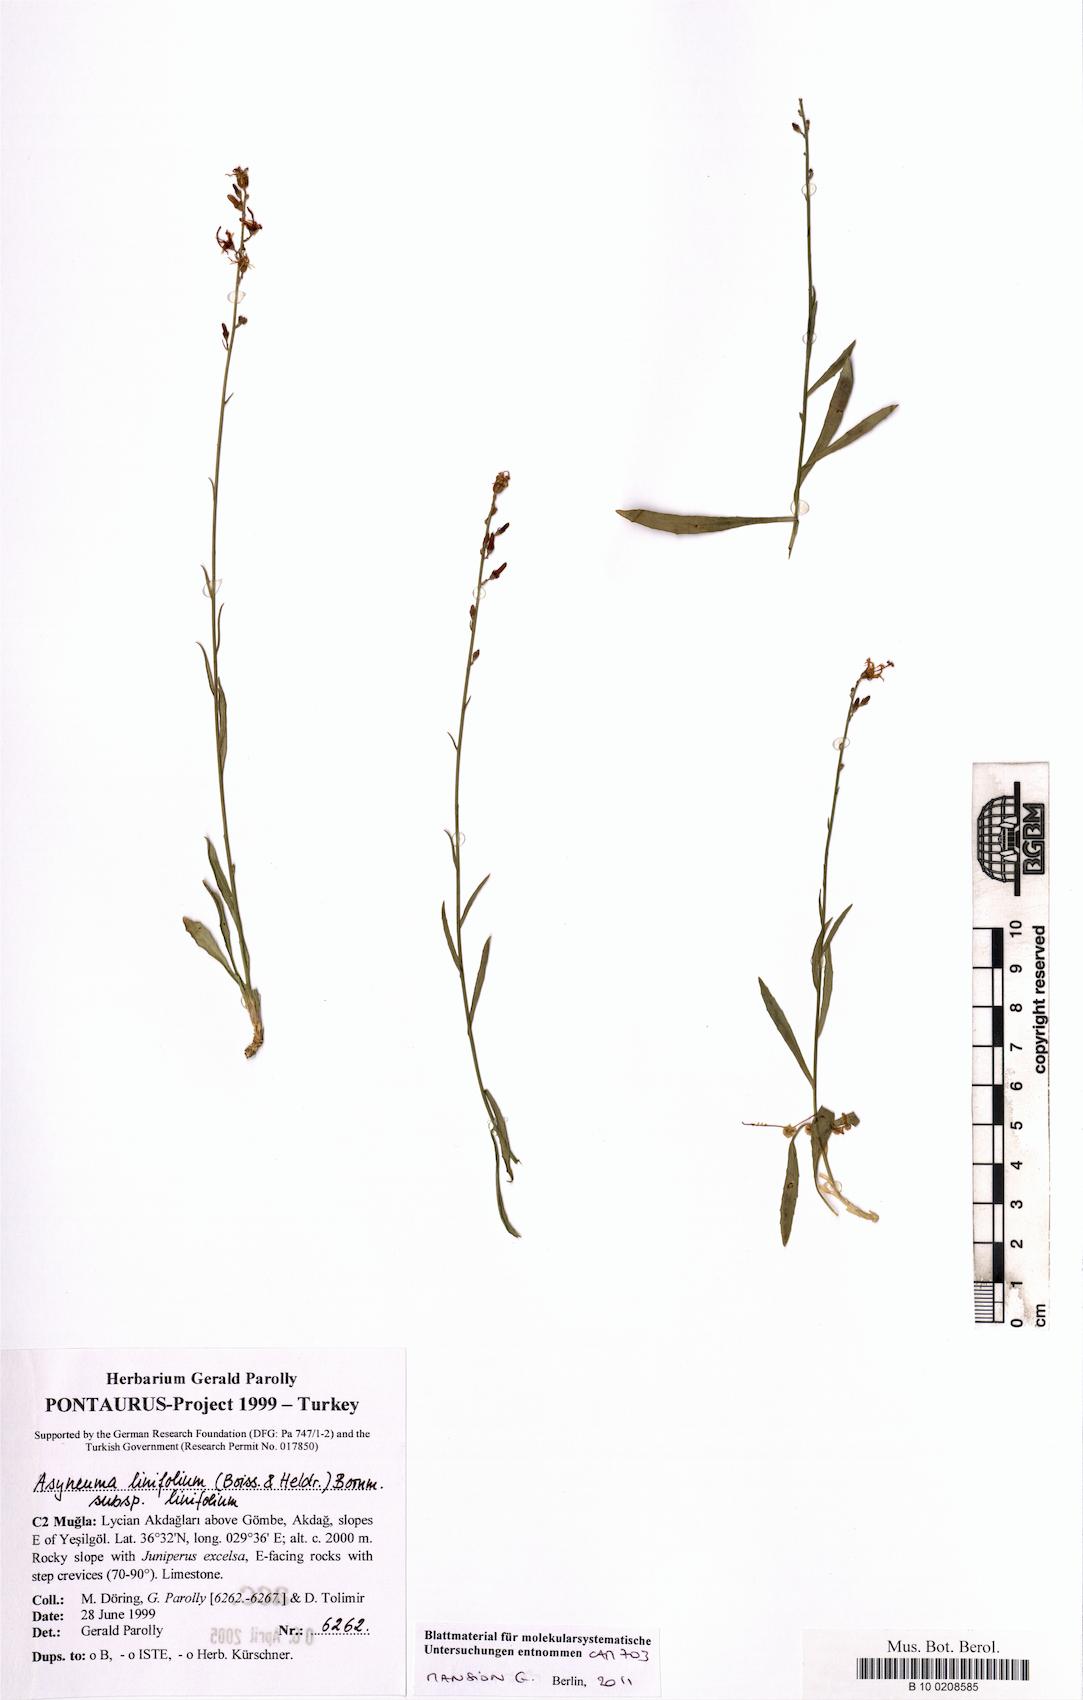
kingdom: Plantae
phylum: Tracheophyta
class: Magnoliopsida
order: Asterales
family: Campanulaceae
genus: Asyneuma
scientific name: Asyneuma linifolium
